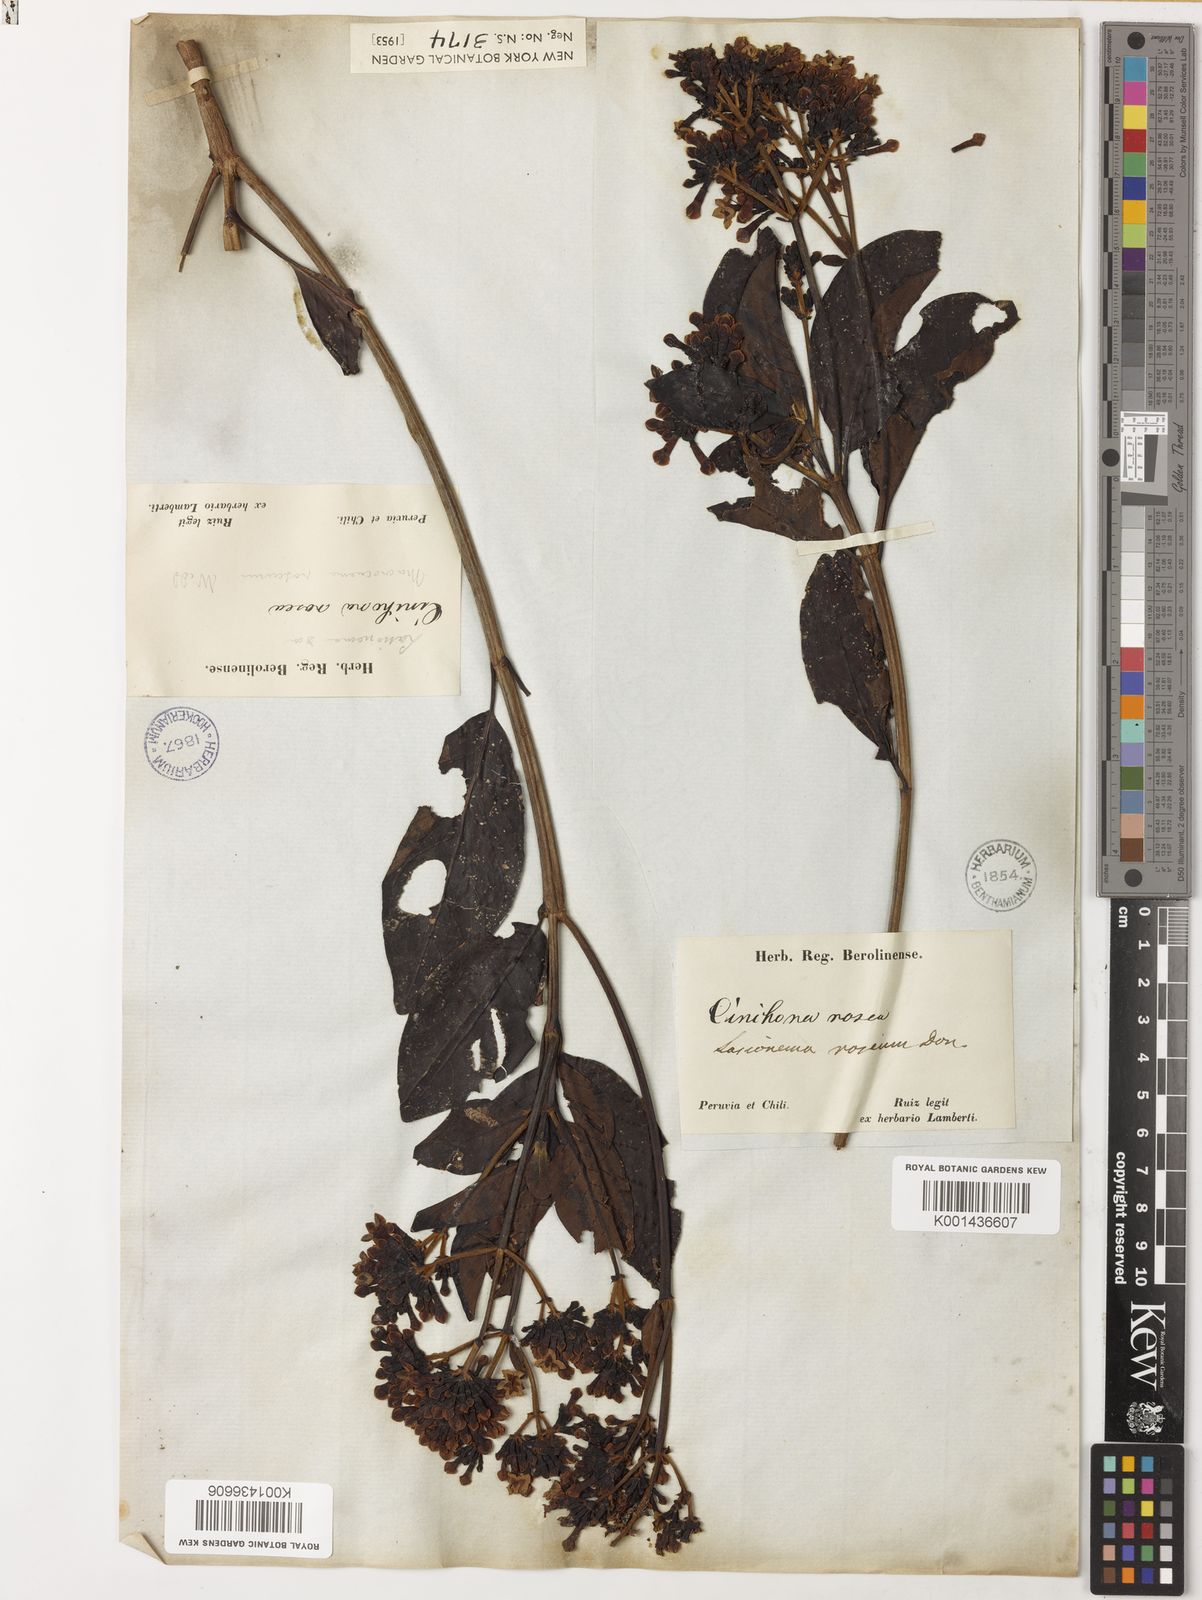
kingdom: Plantae
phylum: Tracheophyta
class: Magnoliopsida
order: Gentianales
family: Rubiaceae
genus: Macrocnemum
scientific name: Macrocnemum roseum
